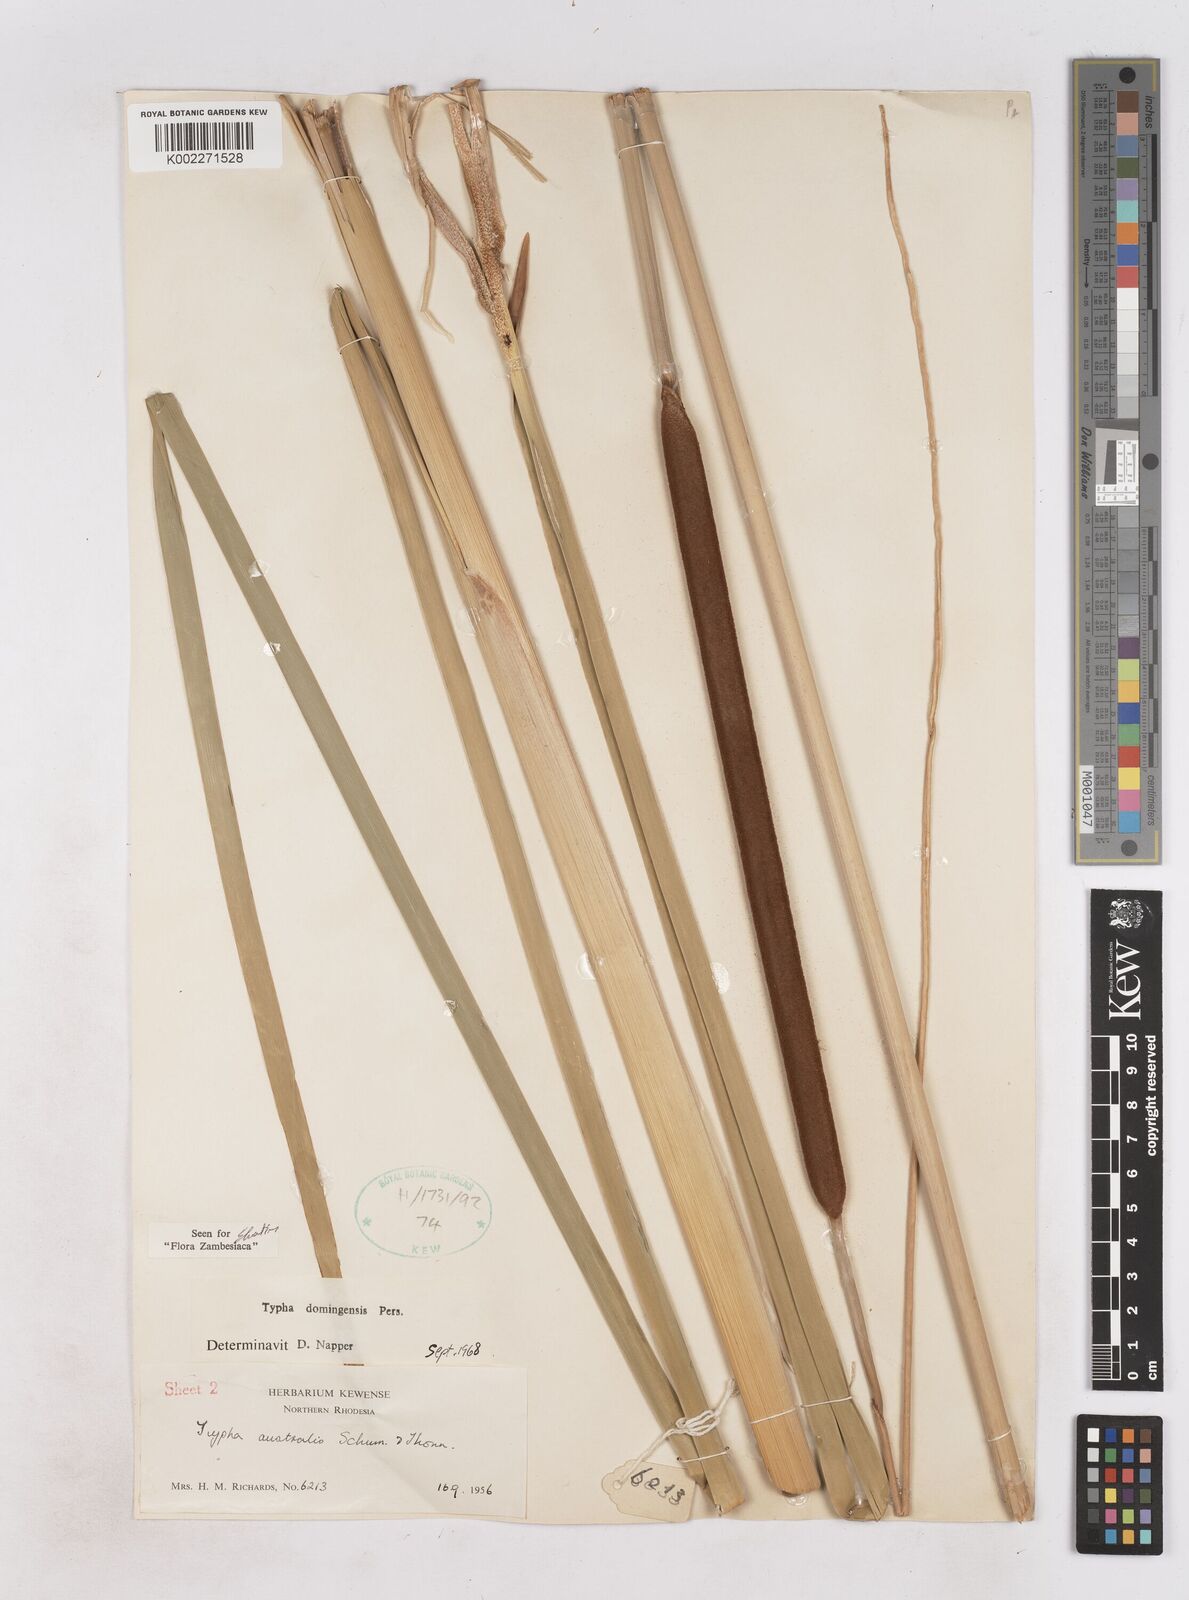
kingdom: Plantae
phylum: Tracheophyta
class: Liliopsida
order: Poales
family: Typhaceae
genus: Typha
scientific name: Typha domingensis
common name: Southern cattail
